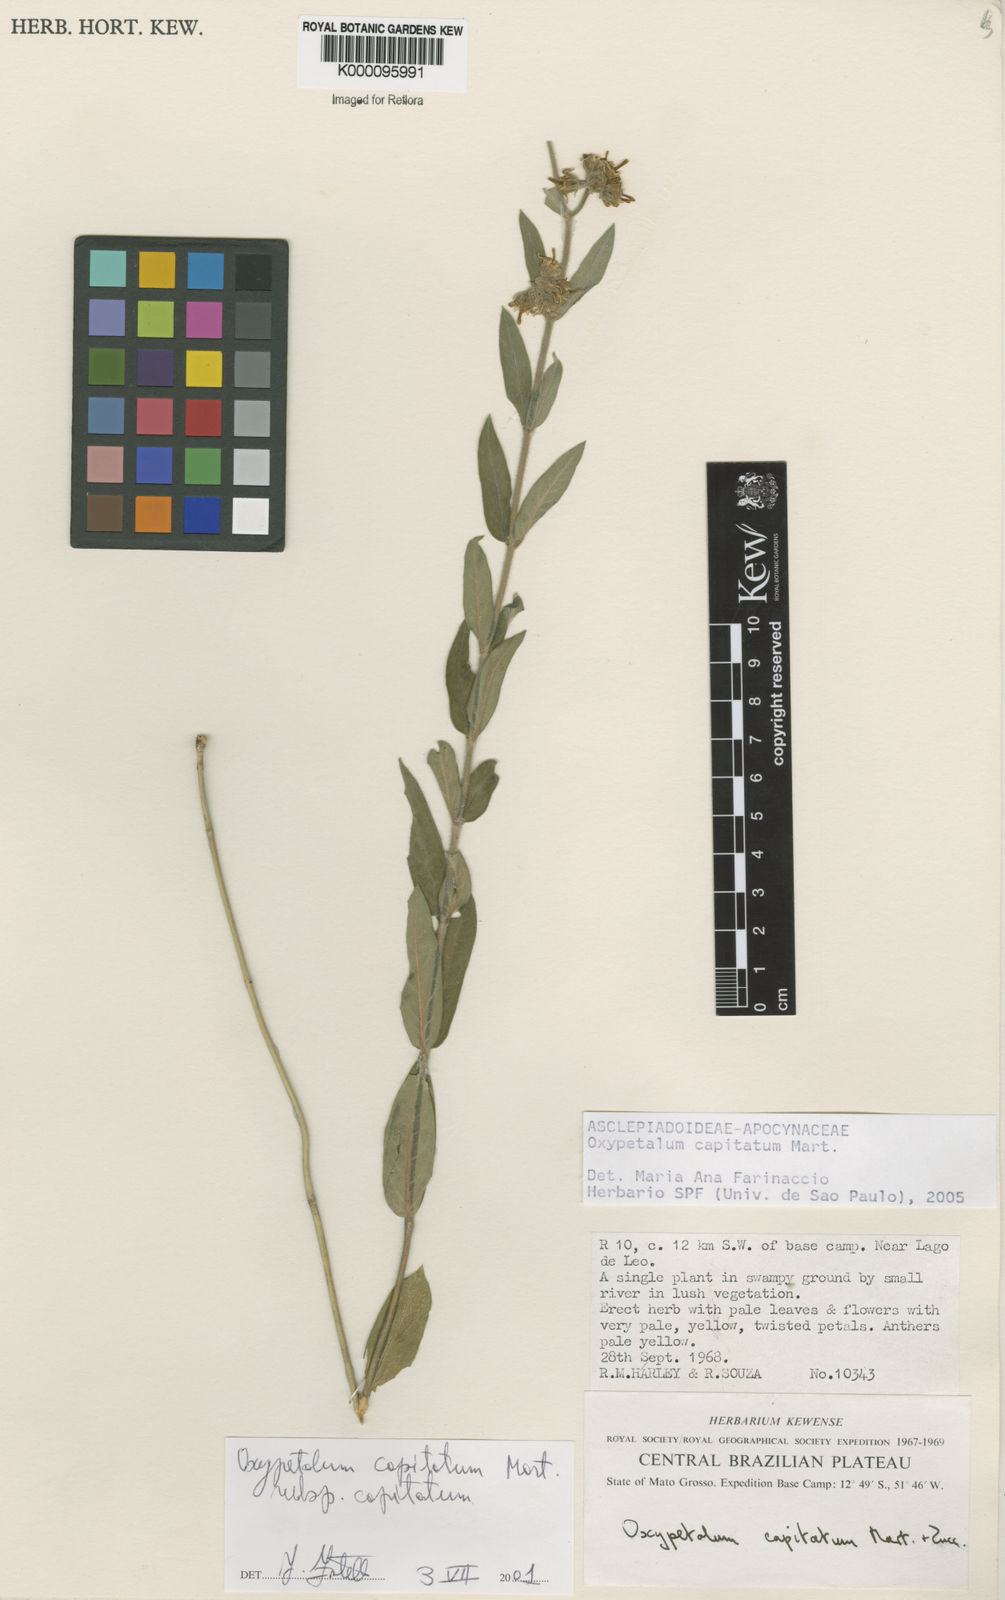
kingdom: Plantae
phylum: Tracheophyta
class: Magnoliopsida
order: Gentianales
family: Apocynaceae
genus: Oxypetalum
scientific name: Oxypetalum capitatum
